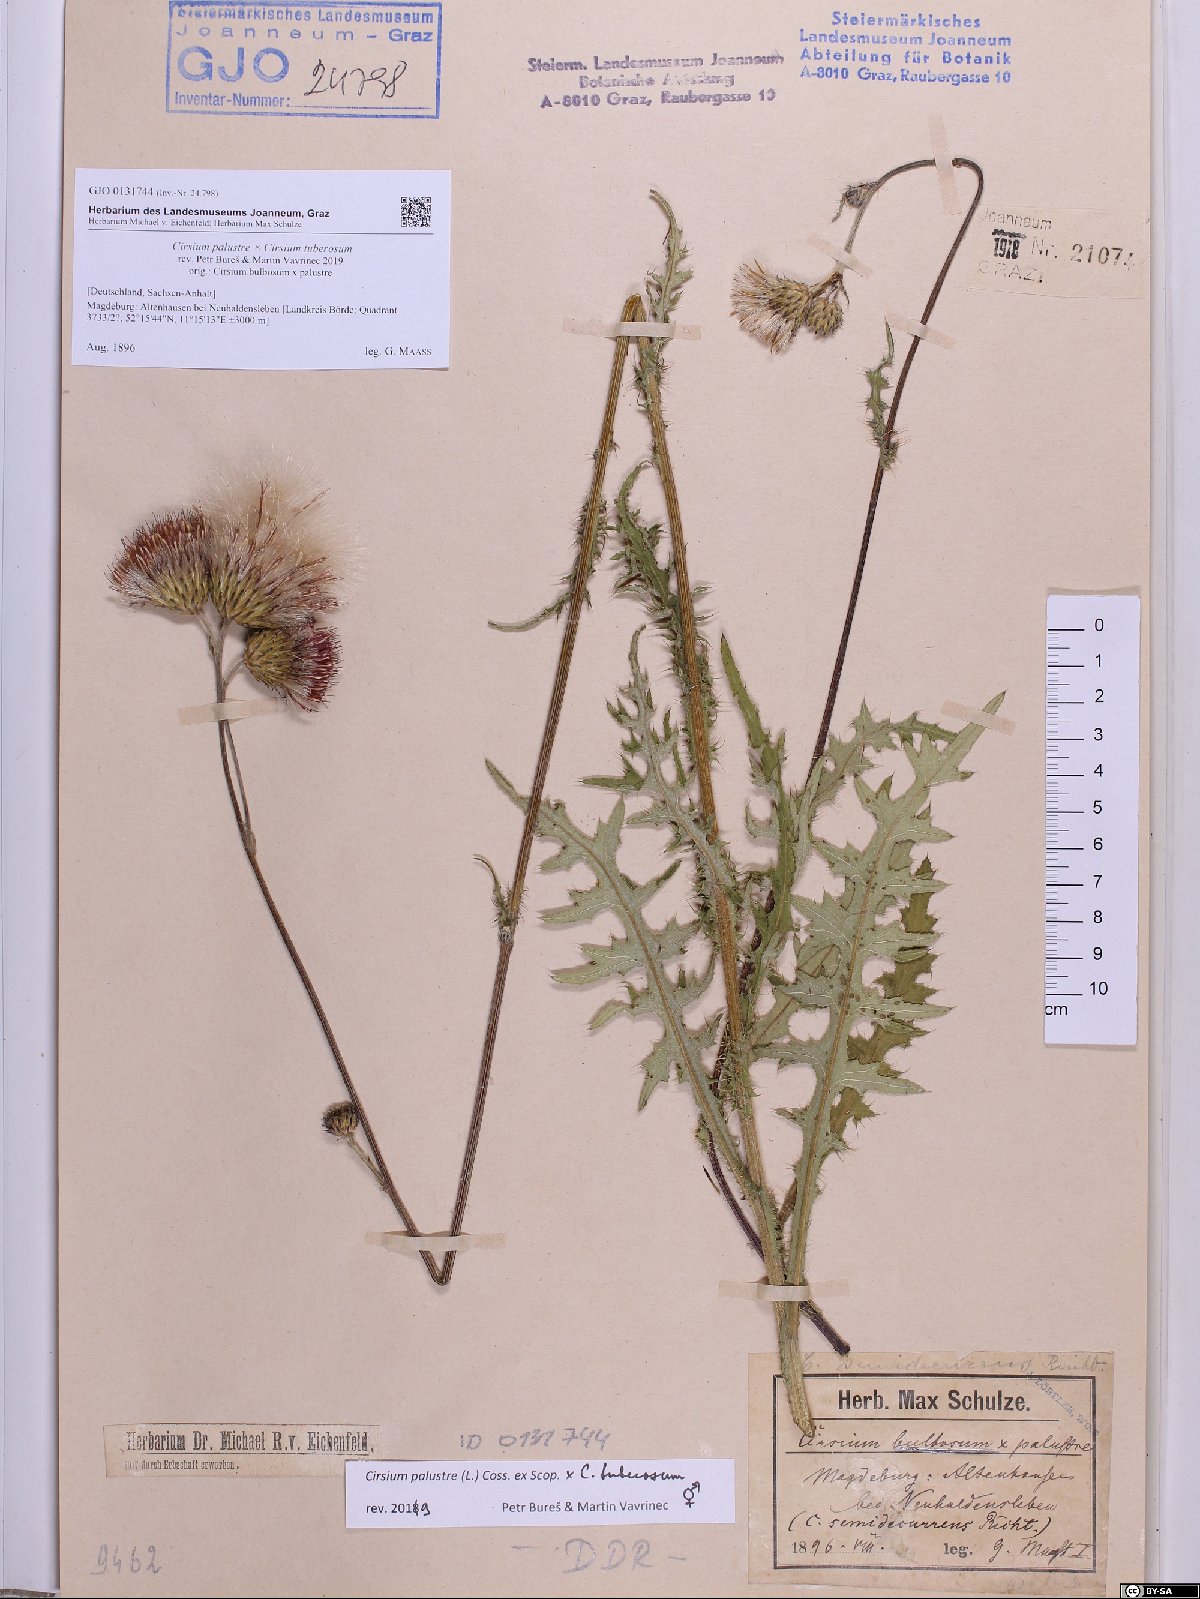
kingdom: Plantae
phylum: Tracheophyta
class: Magnoliopsida
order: Asterales
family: Asteraceae
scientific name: Asteraceae
